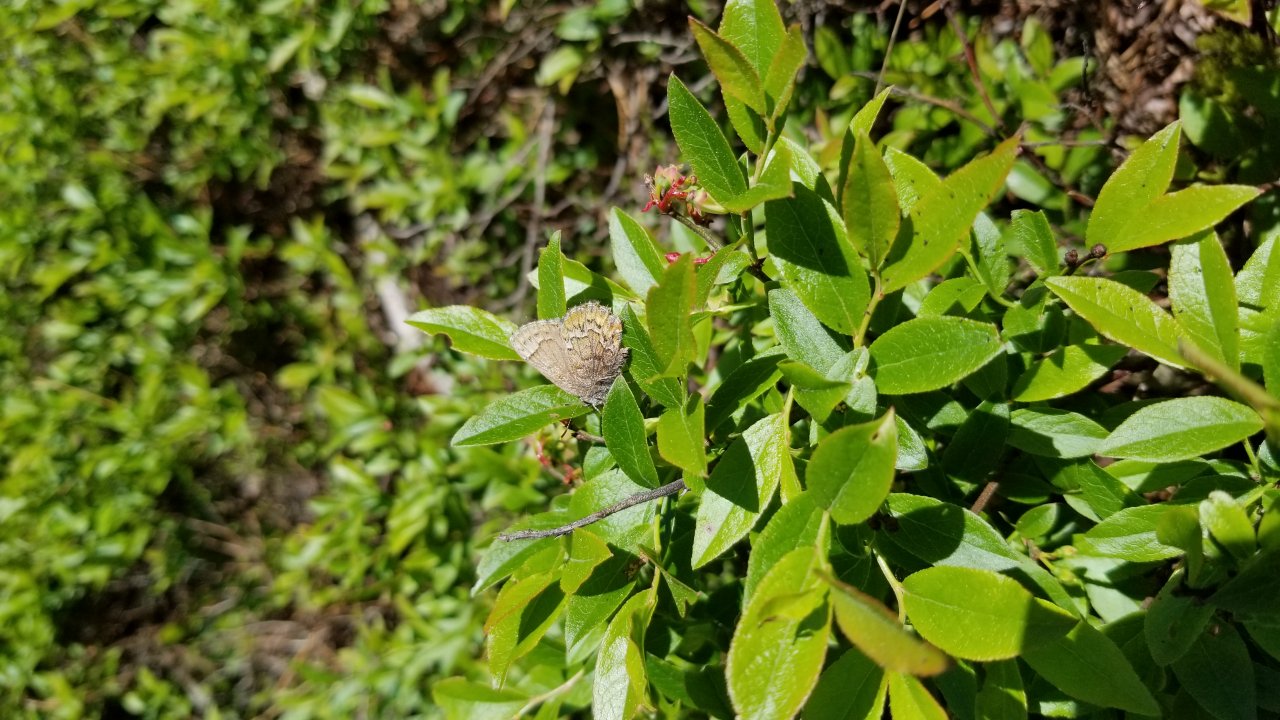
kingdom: Animalia
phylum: Arthropoda
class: Insecta
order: Lepidoptera
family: Lycaenidae
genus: Incisalia
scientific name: Incisalia niphon
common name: Eastern Pine Elfin
